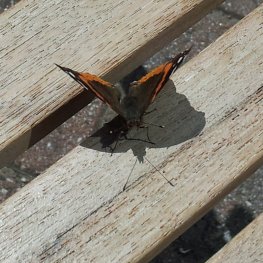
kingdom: Animalia
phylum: Arthropoda
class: Insecta
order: Lepidoptera
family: Nymphalidae
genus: Vanessa
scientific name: Vanessa atalanta
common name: Red Admiral
